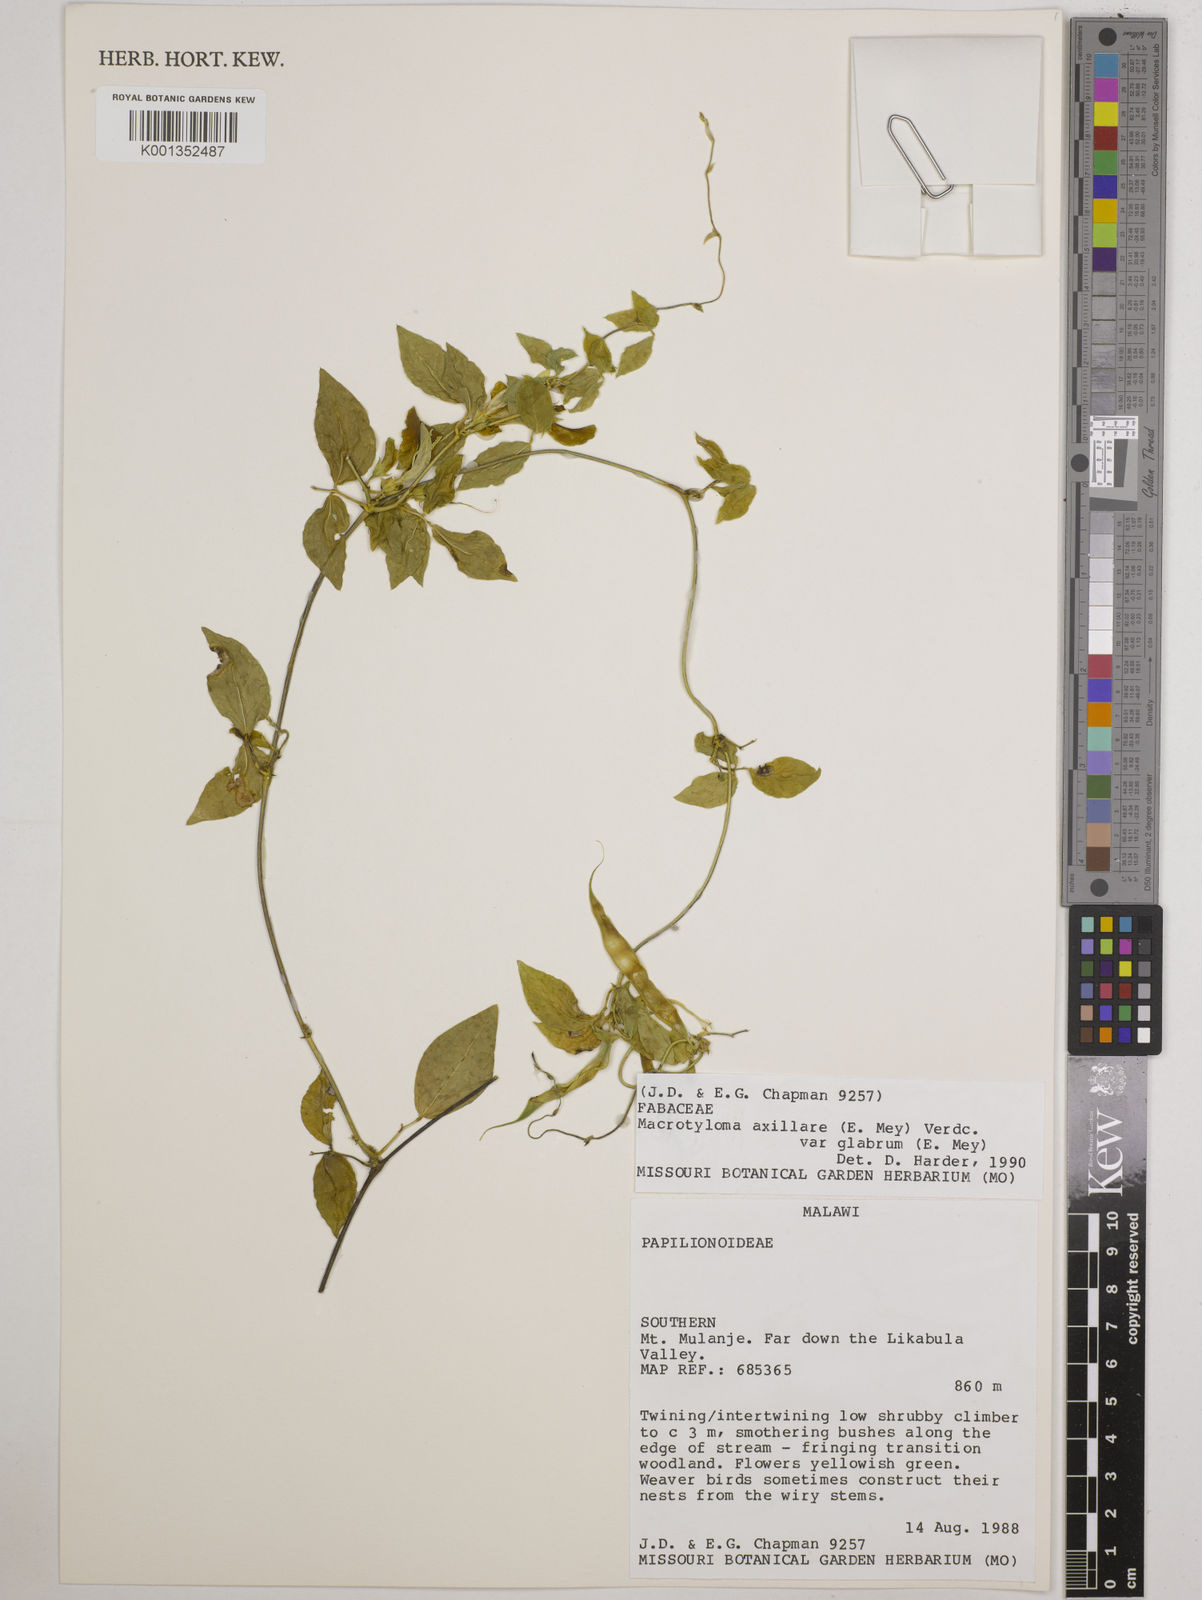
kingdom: Plantae
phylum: Tracheophyta
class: Magnoliopsida
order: Fabales
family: Fabaceae
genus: Macrotyloma
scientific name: Macrotyloma
